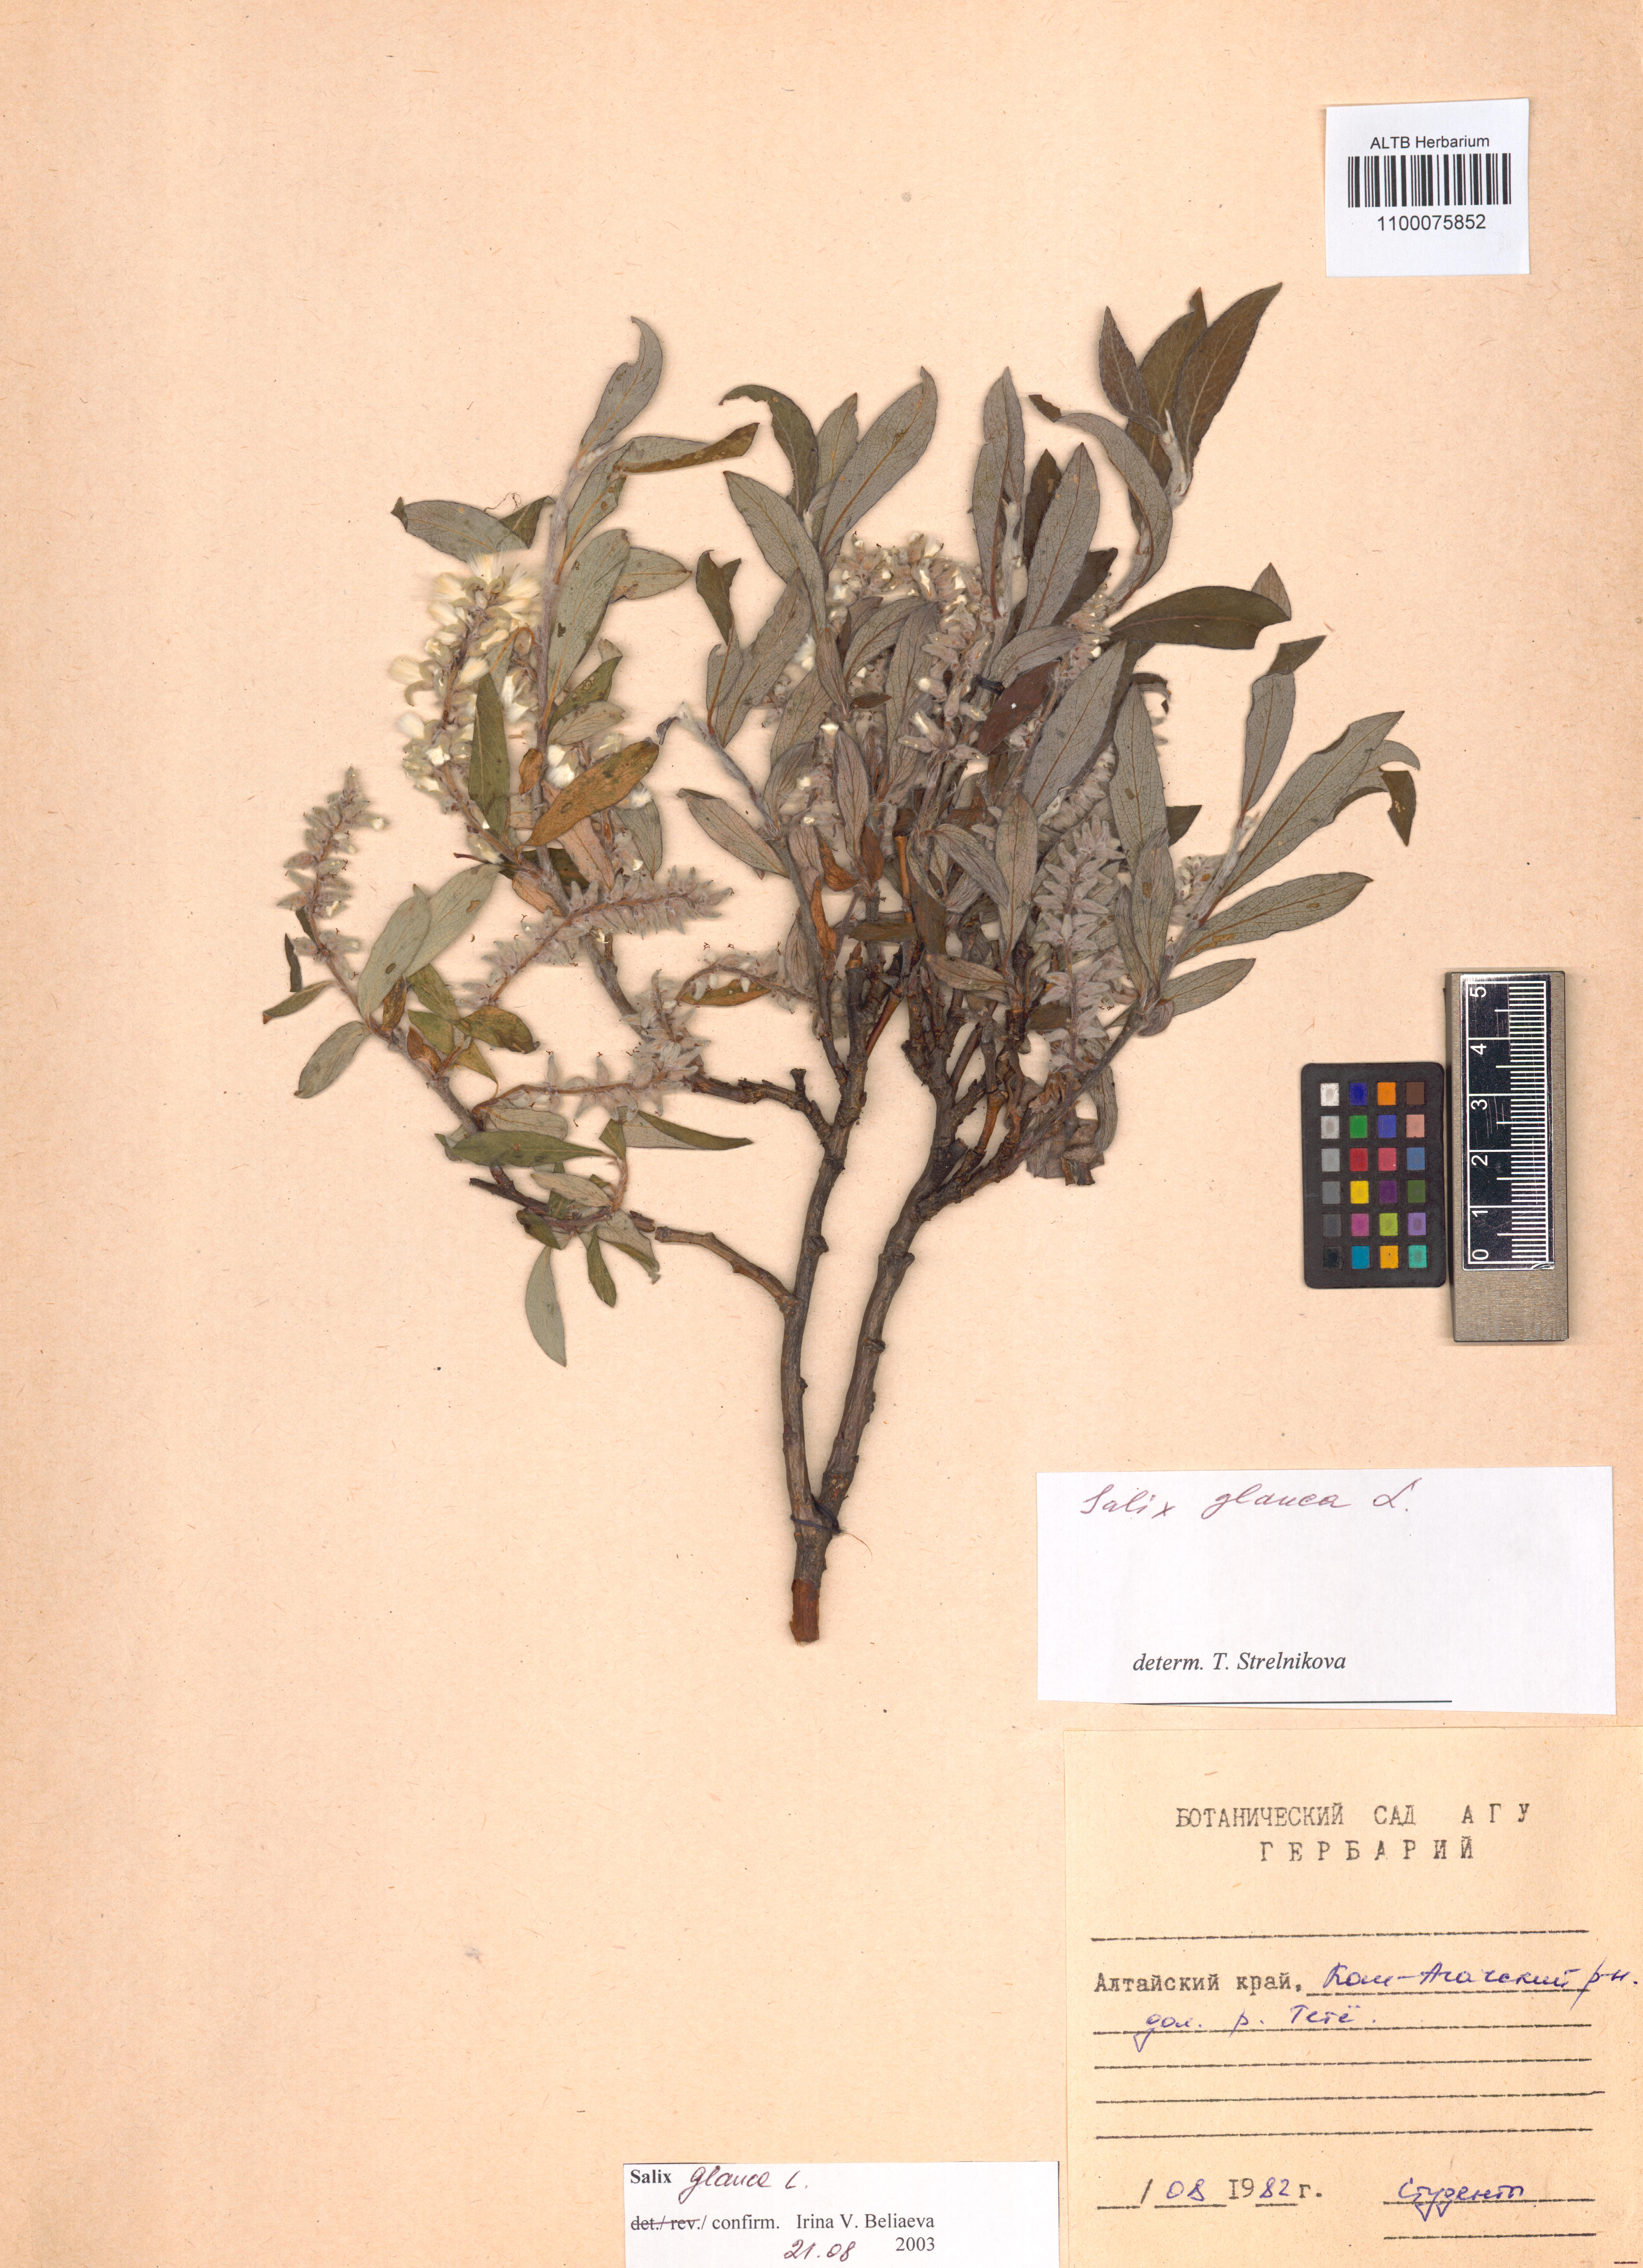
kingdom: Plantae
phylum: Tracheophyta
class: Magnoliopsida
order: Malpighiales
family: Salicaceae
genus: Salix
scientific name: Salix glauca
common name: Glaucous willow
